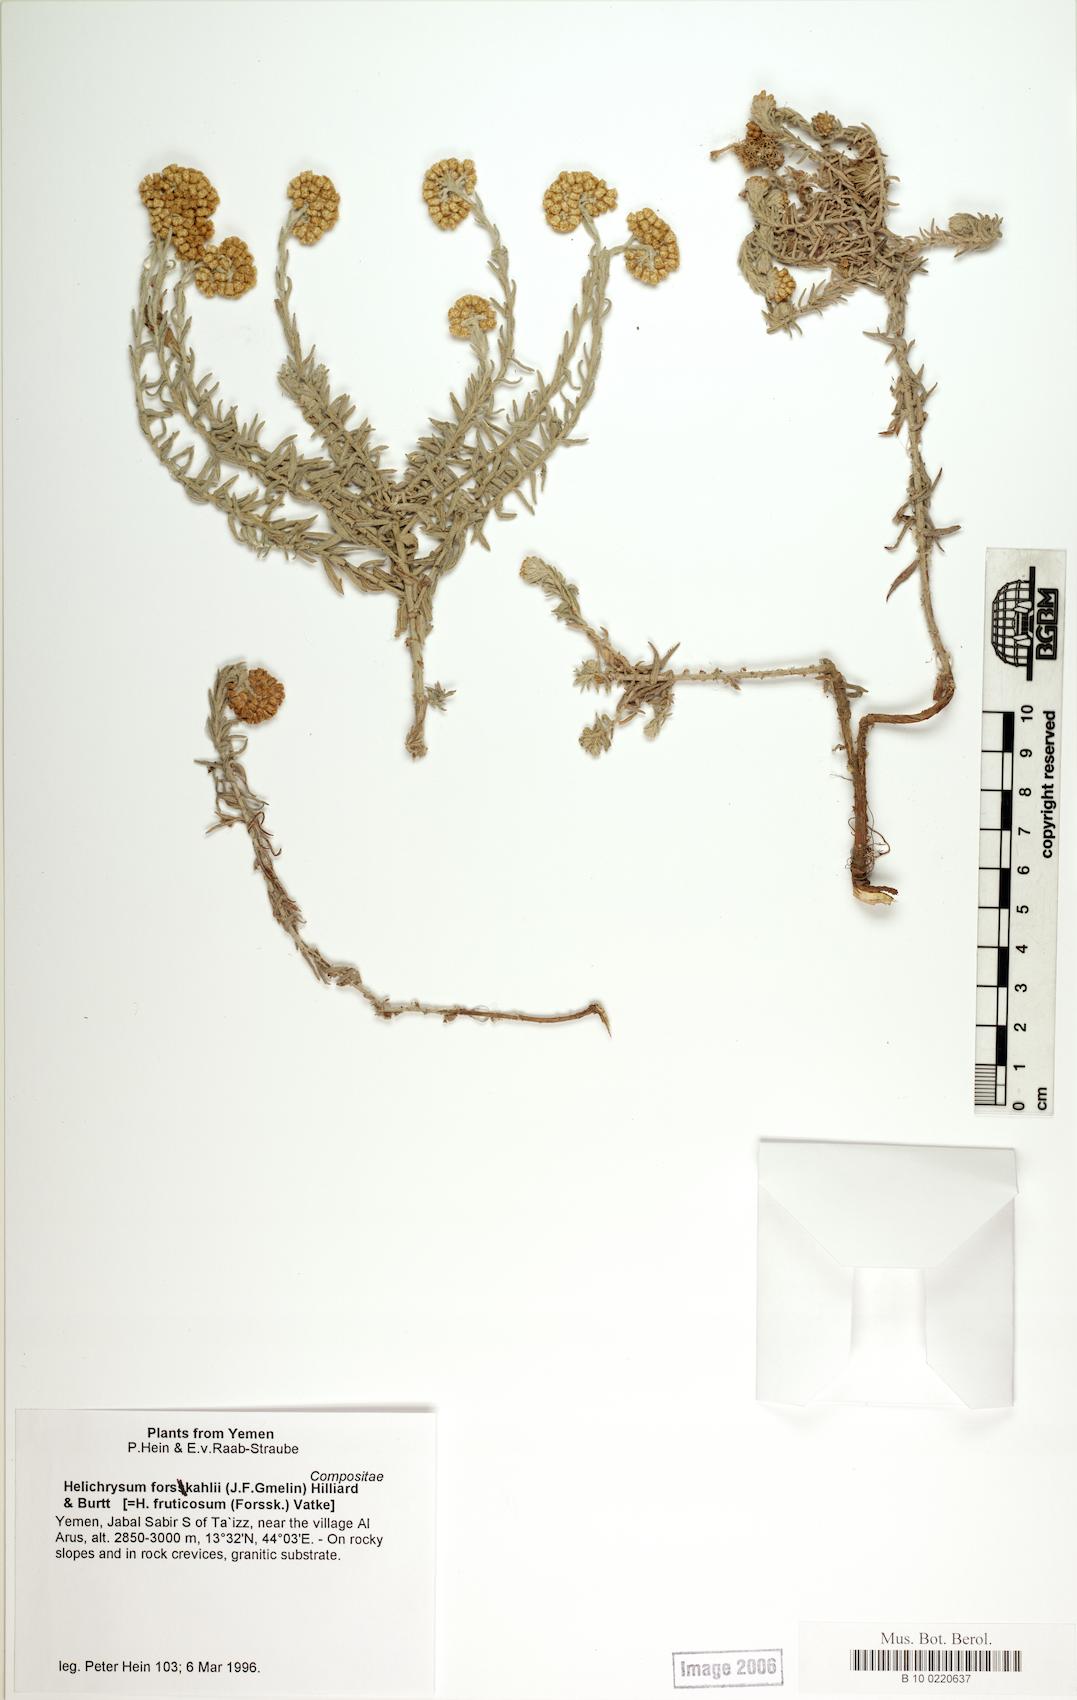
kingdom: Plantae
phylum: Tracheophyta
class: Magnoliopsida
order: Caryophyllales
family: Caryophyllaceae
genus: Arenaria
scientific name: Arenaria serpyllifolia
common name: Thyme-leaved sandwort
